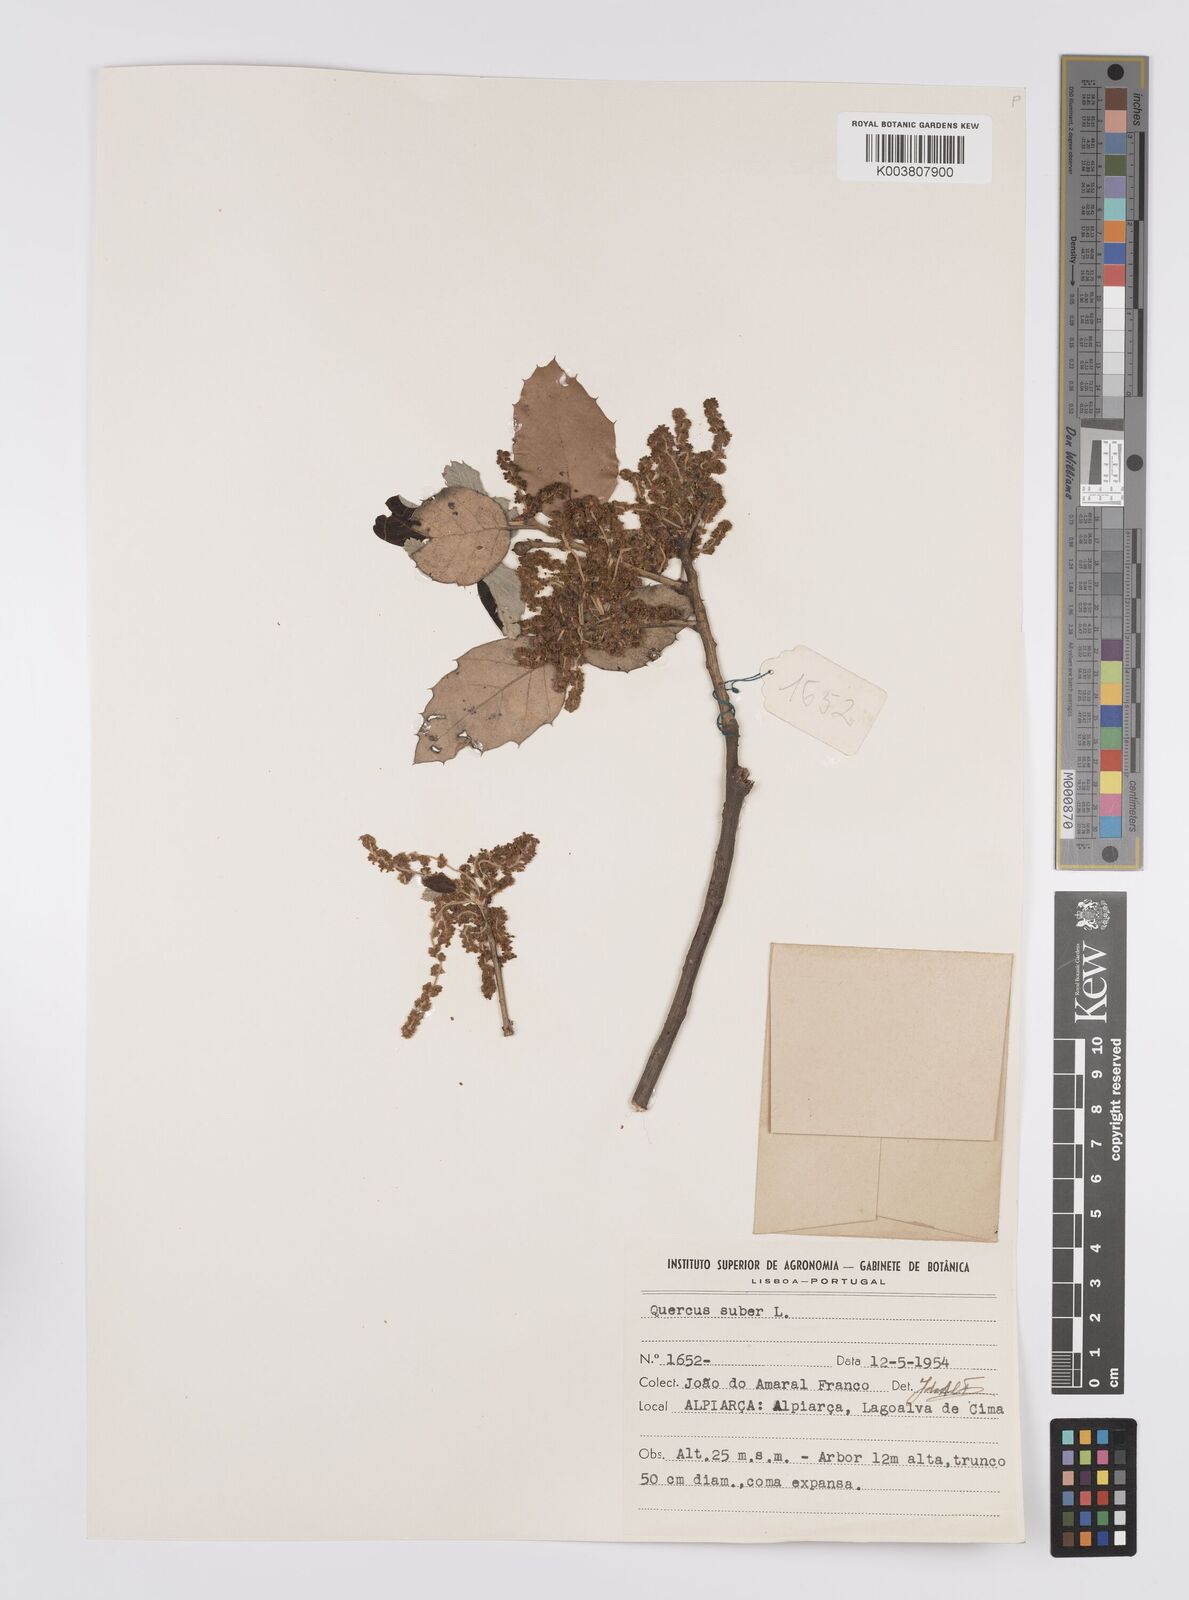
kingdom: Plantae
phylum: Tracheophyta
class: Magnoliopsida
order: Fagales
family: Fagaceae
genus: Quercus
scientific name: Quercus suber
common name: Cork oak
